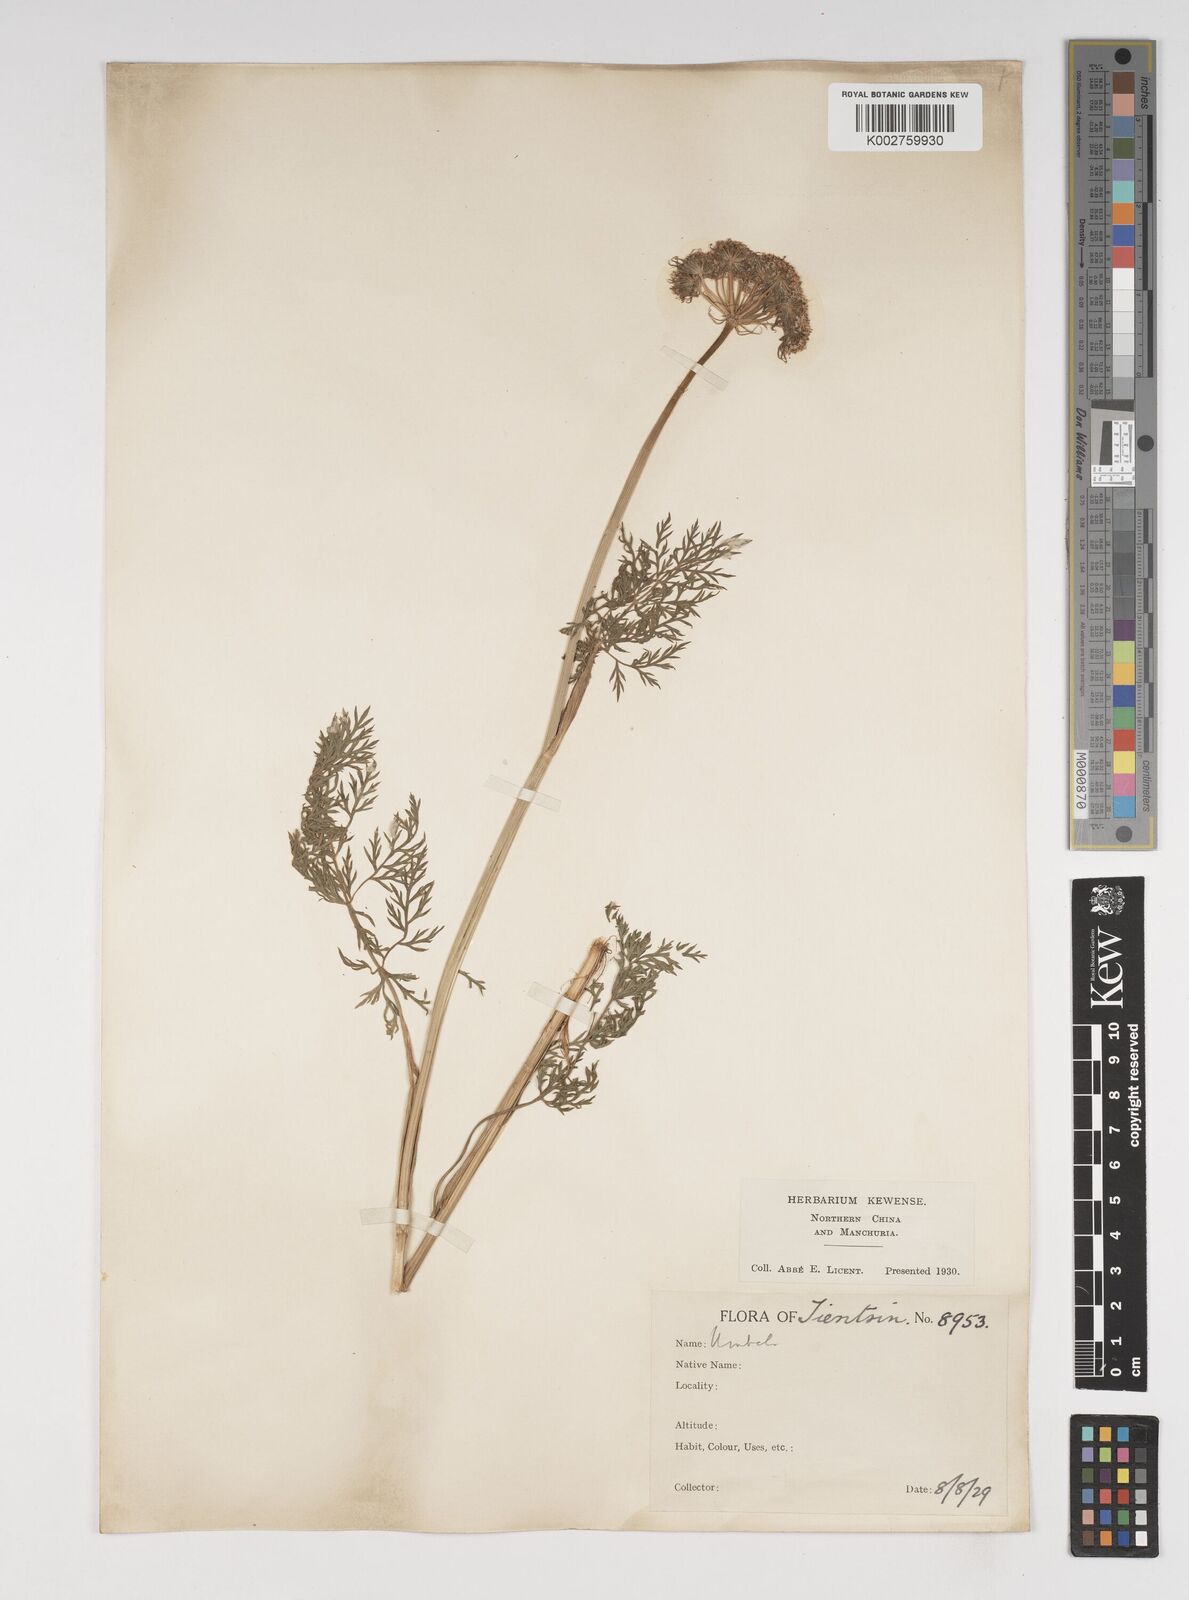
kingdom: Plantae
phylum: Tracheophyta
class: Magnoliopsida
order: Apiales
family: Apiaceae
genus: Cnidium
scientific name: Cnidium monnieri
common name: Monnier's snowparsley
